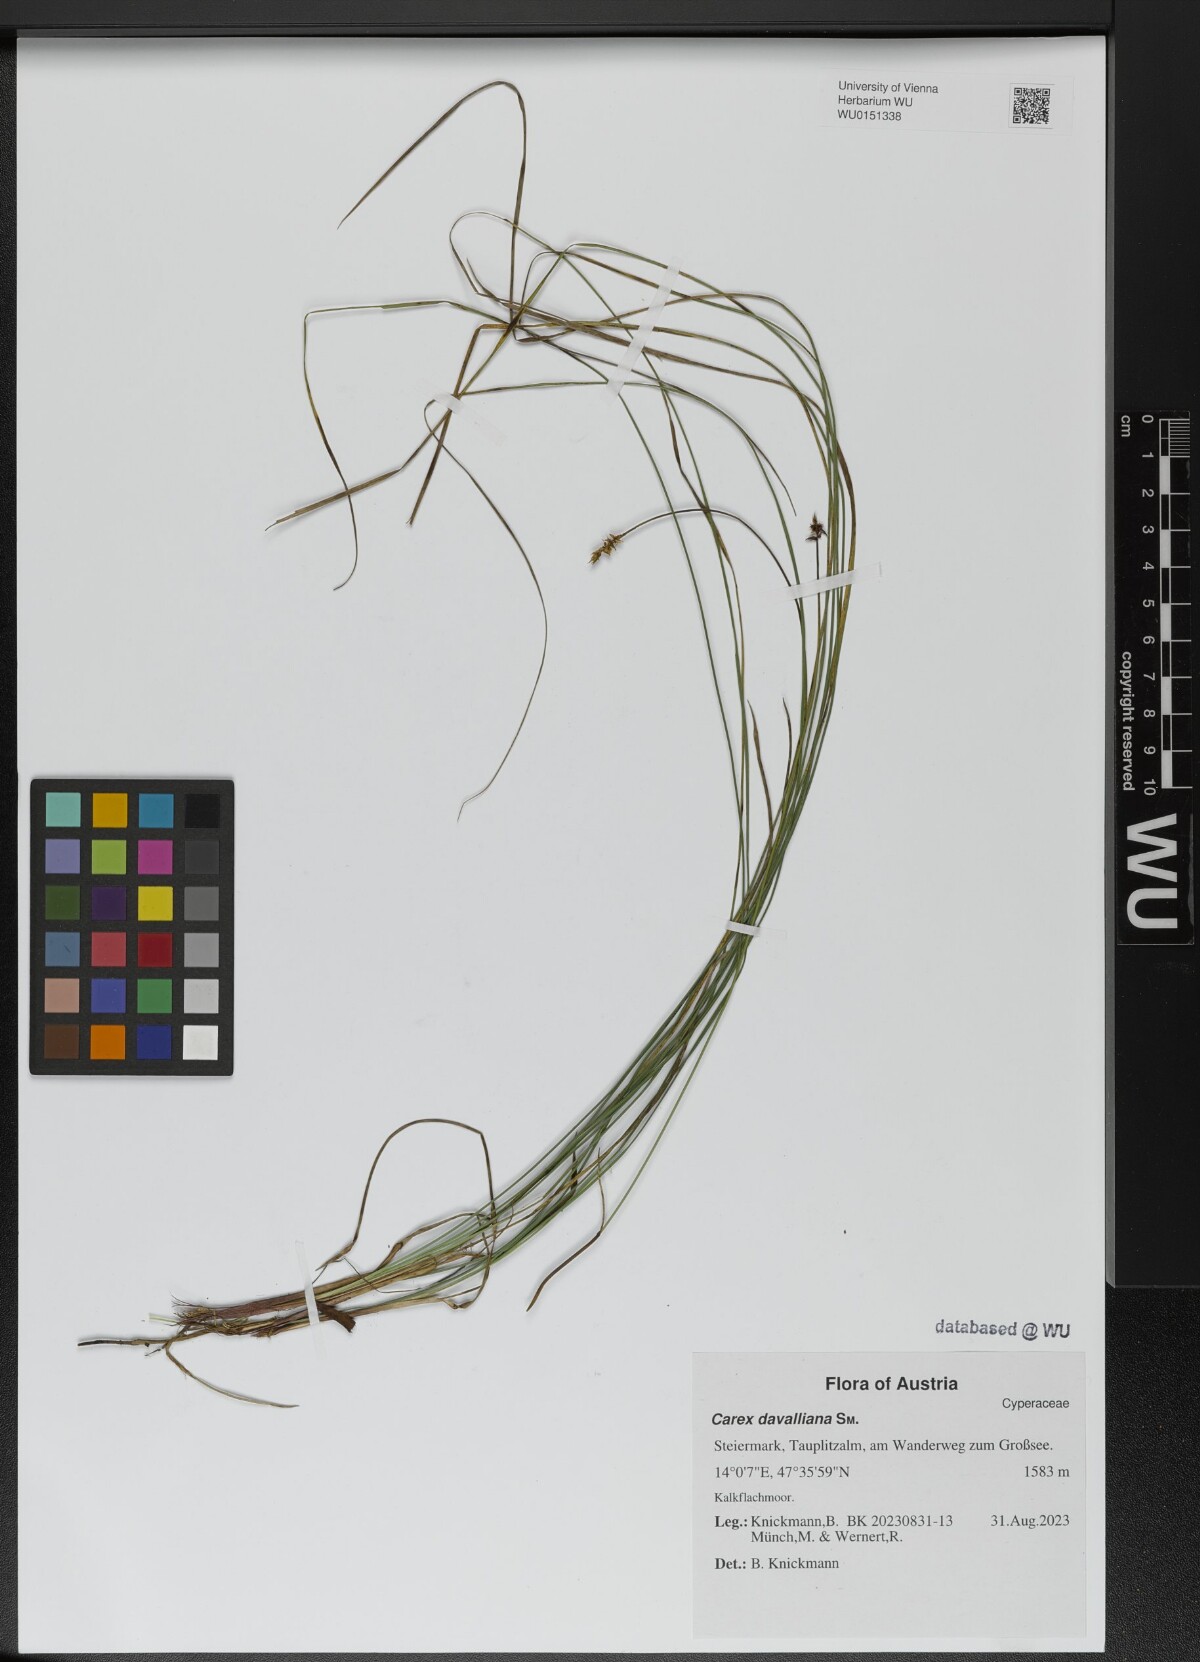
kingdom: Plantae
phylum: Tracheophyta
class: Liliopsida
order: Poales
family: Cyperaceae
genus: Carex
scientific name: Carex davalliana
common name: Davall's sedge
